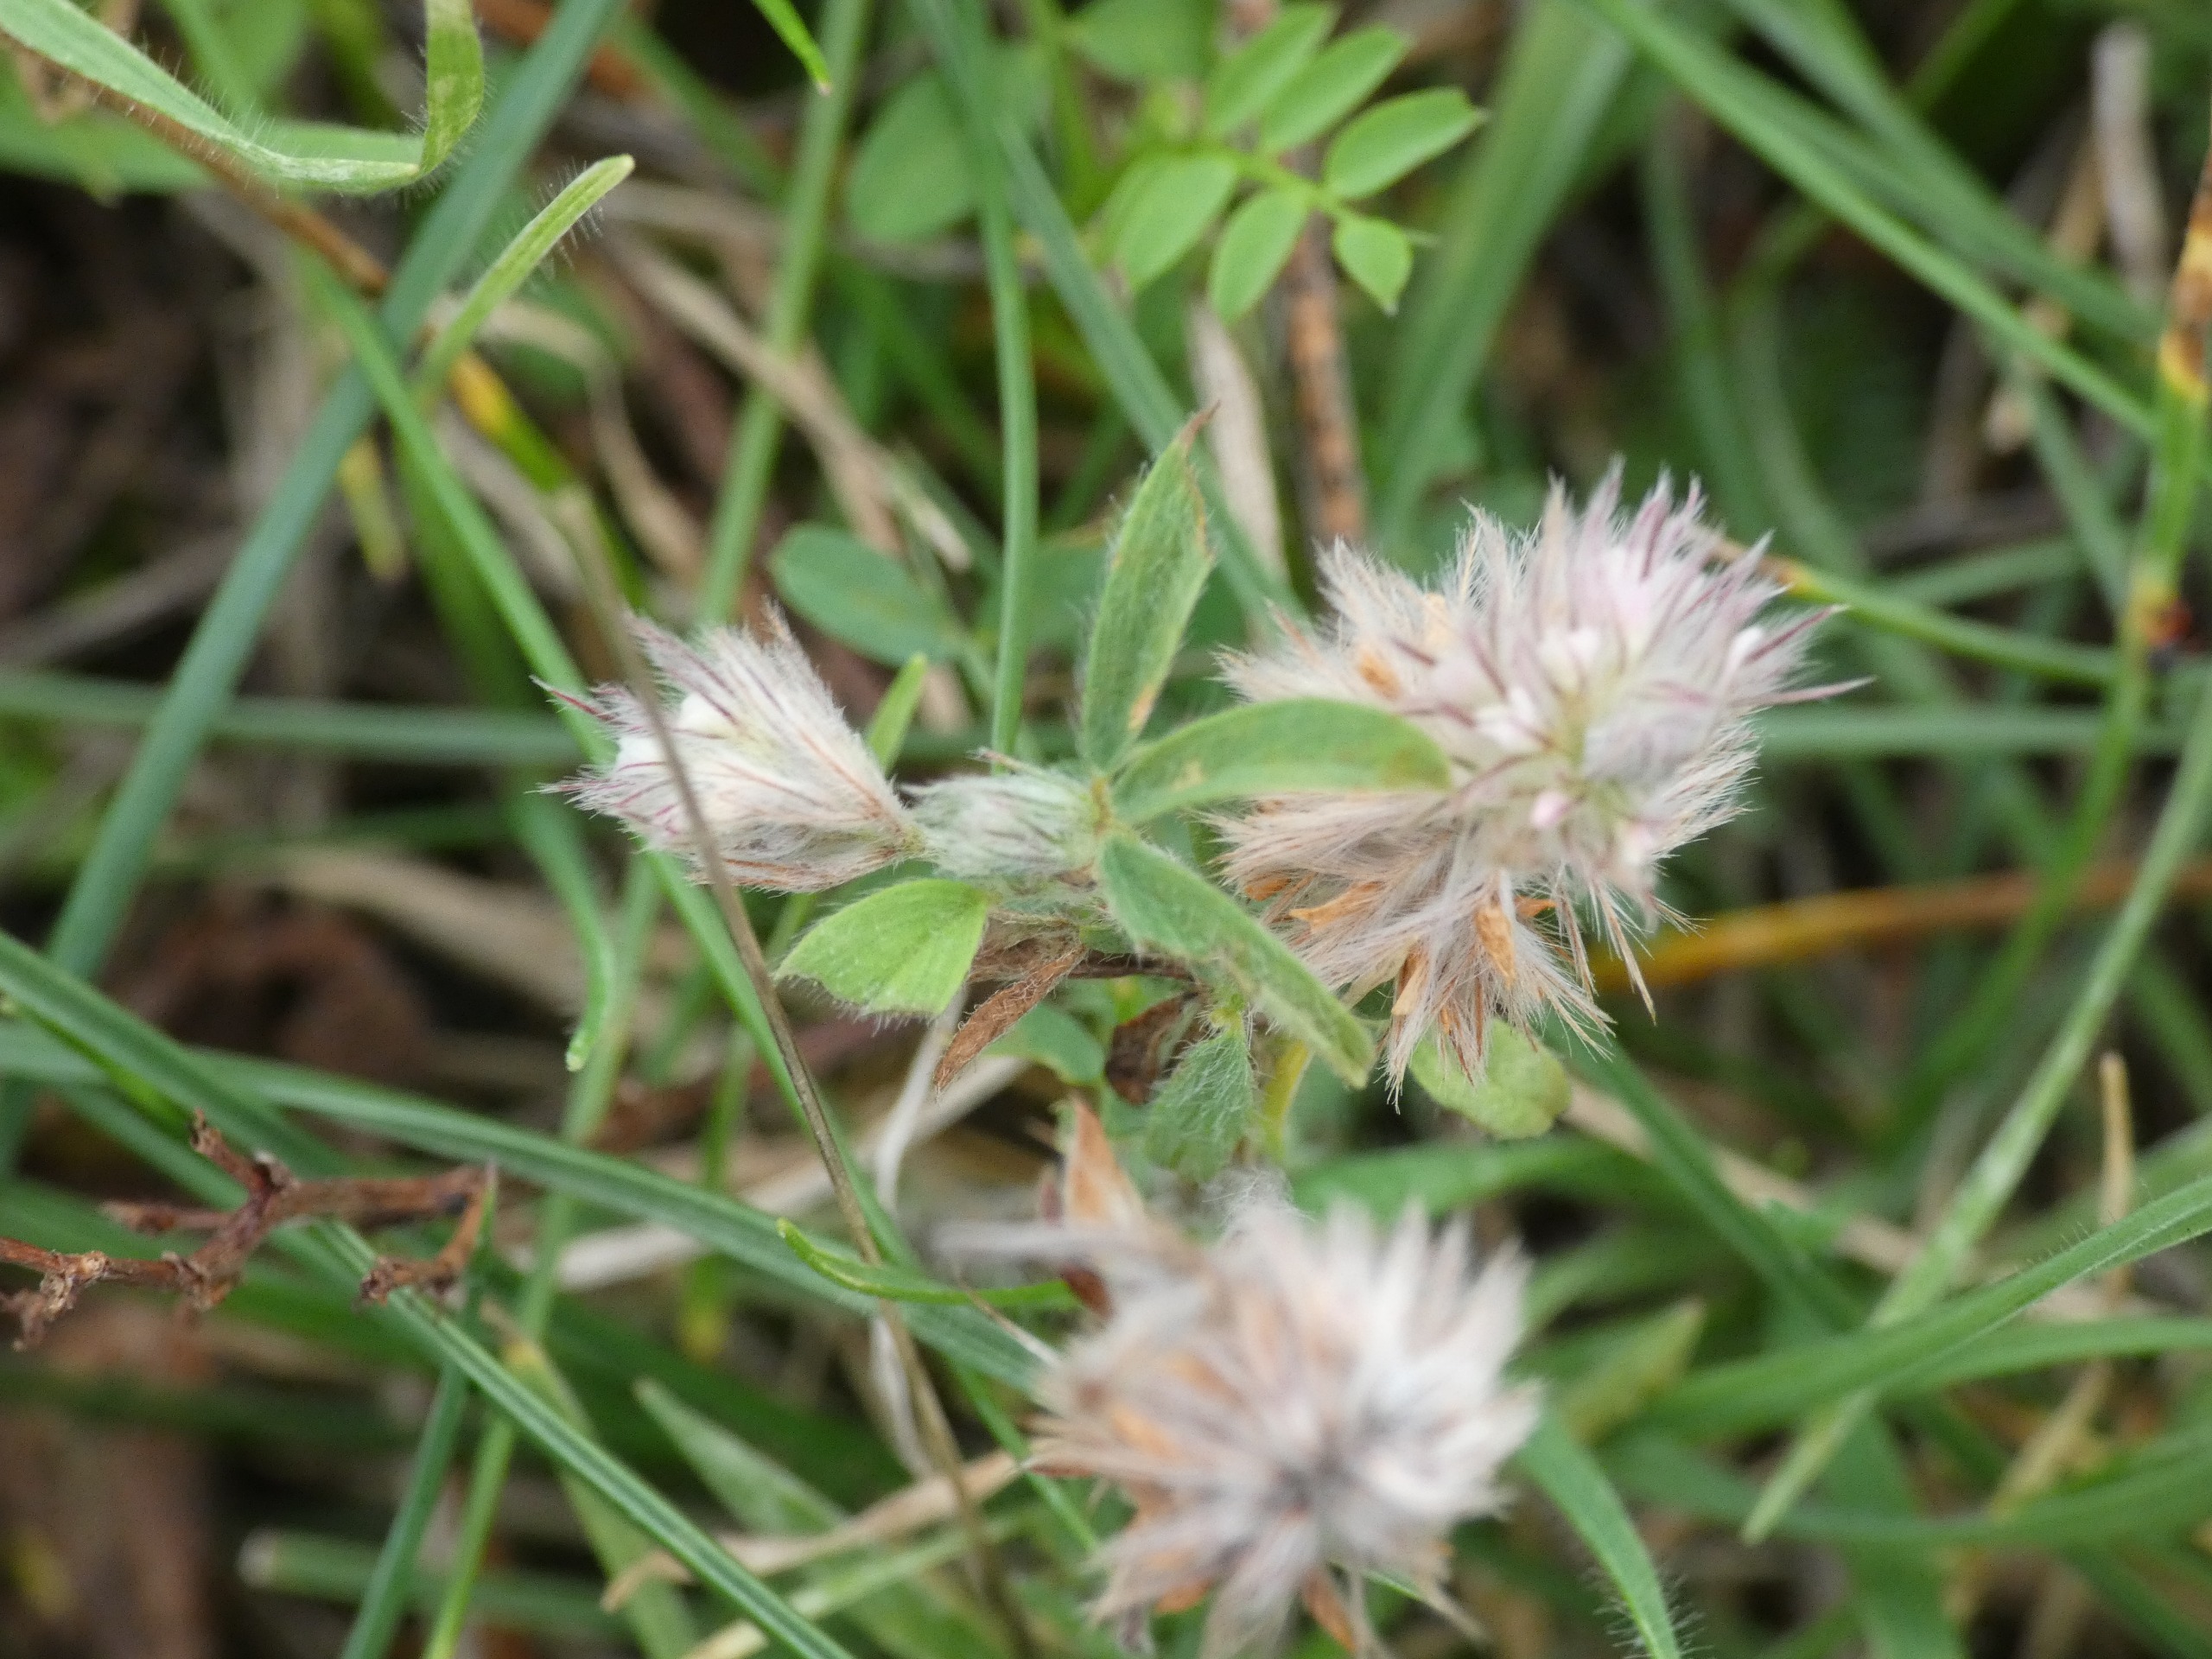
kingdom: Plantae
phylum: Tracheophyta
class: Magnoliopsida
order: Fabales
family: Fabaceae
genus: Trifolium
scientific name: Trifolium arvense
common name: Hare-kløver
